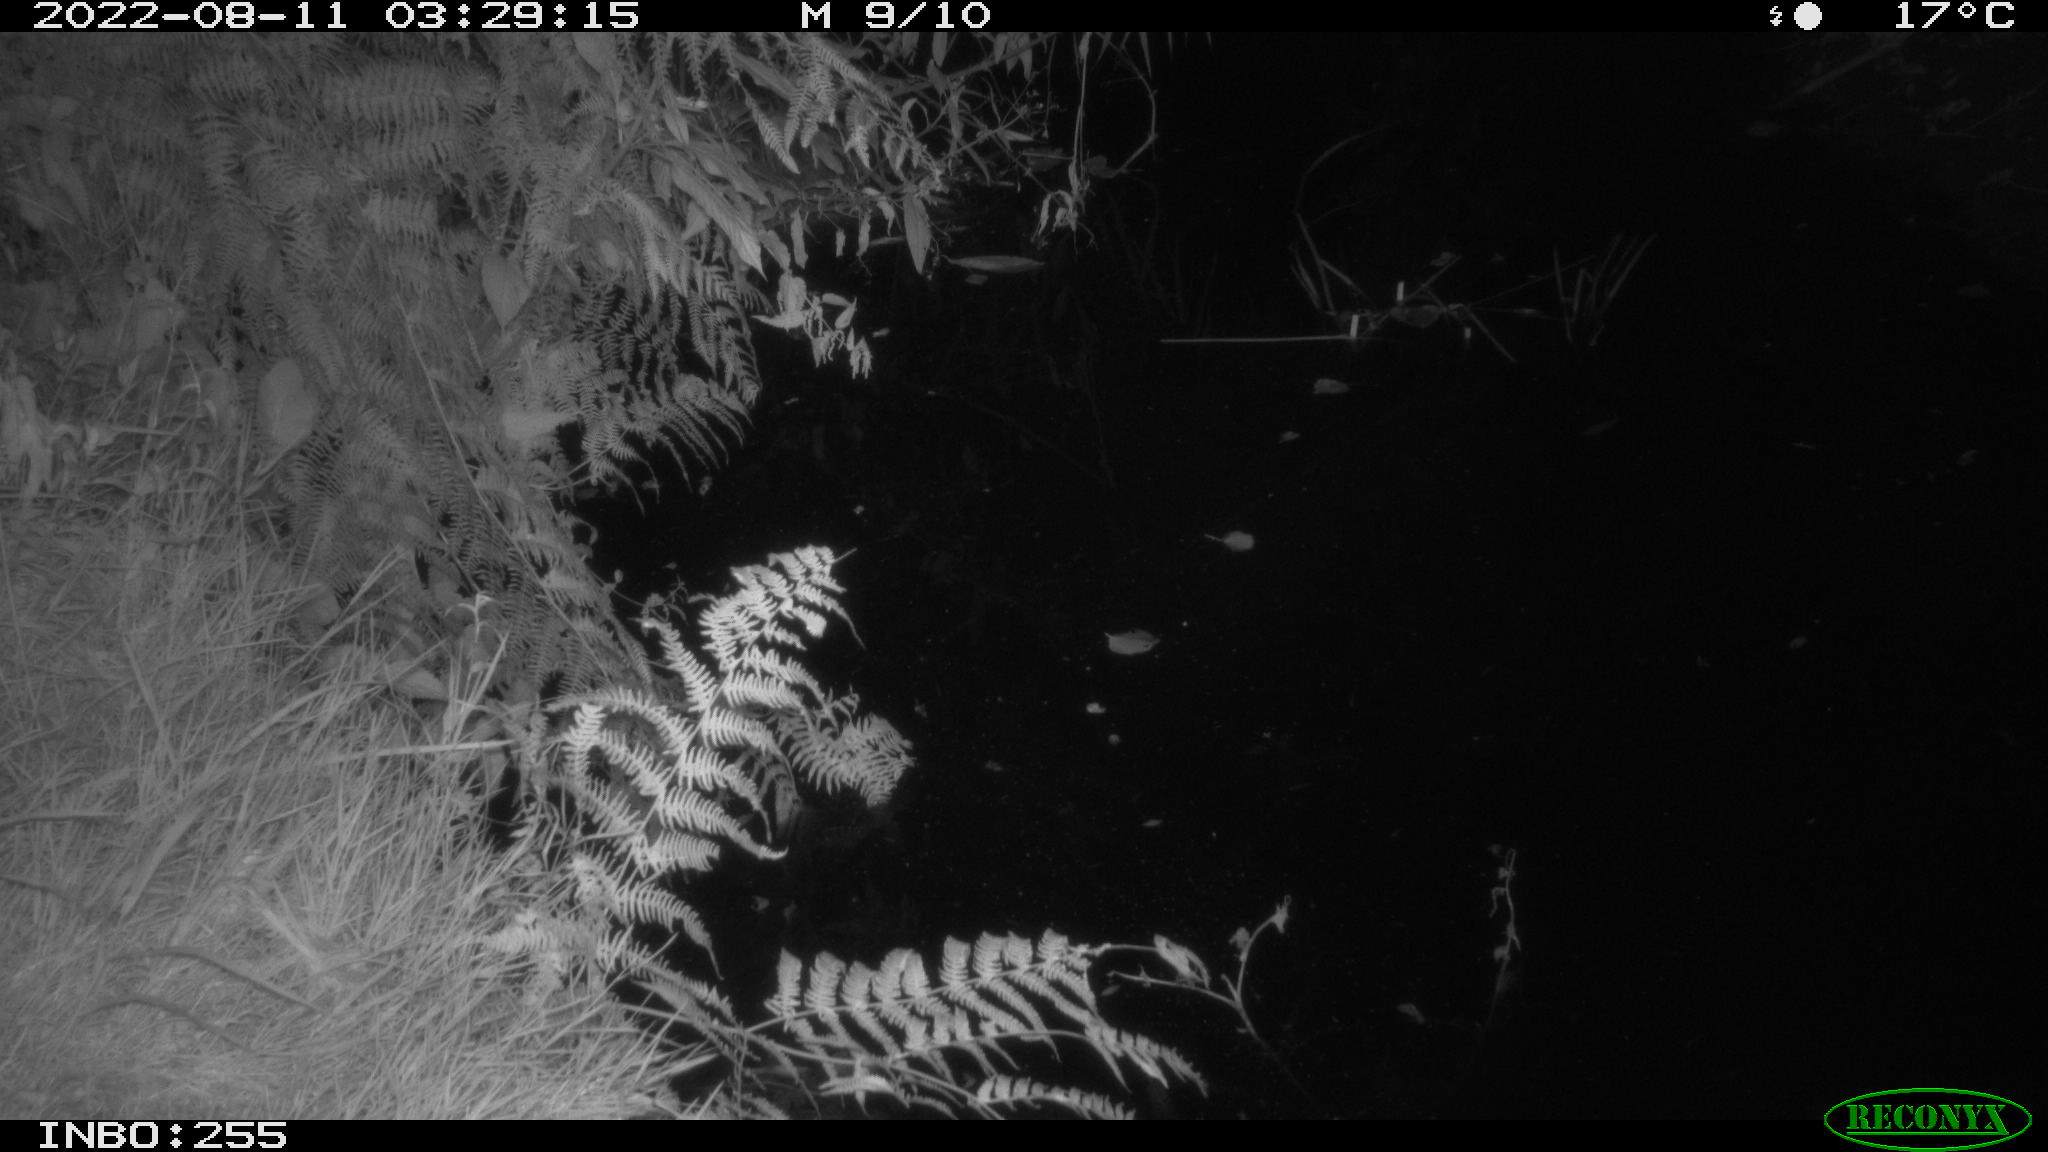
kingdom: Animalia
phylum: Chordata
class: Mammalia
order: Carnivora
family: Mustelidae
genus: Martes
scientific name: Martes foina
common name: Beech marten
